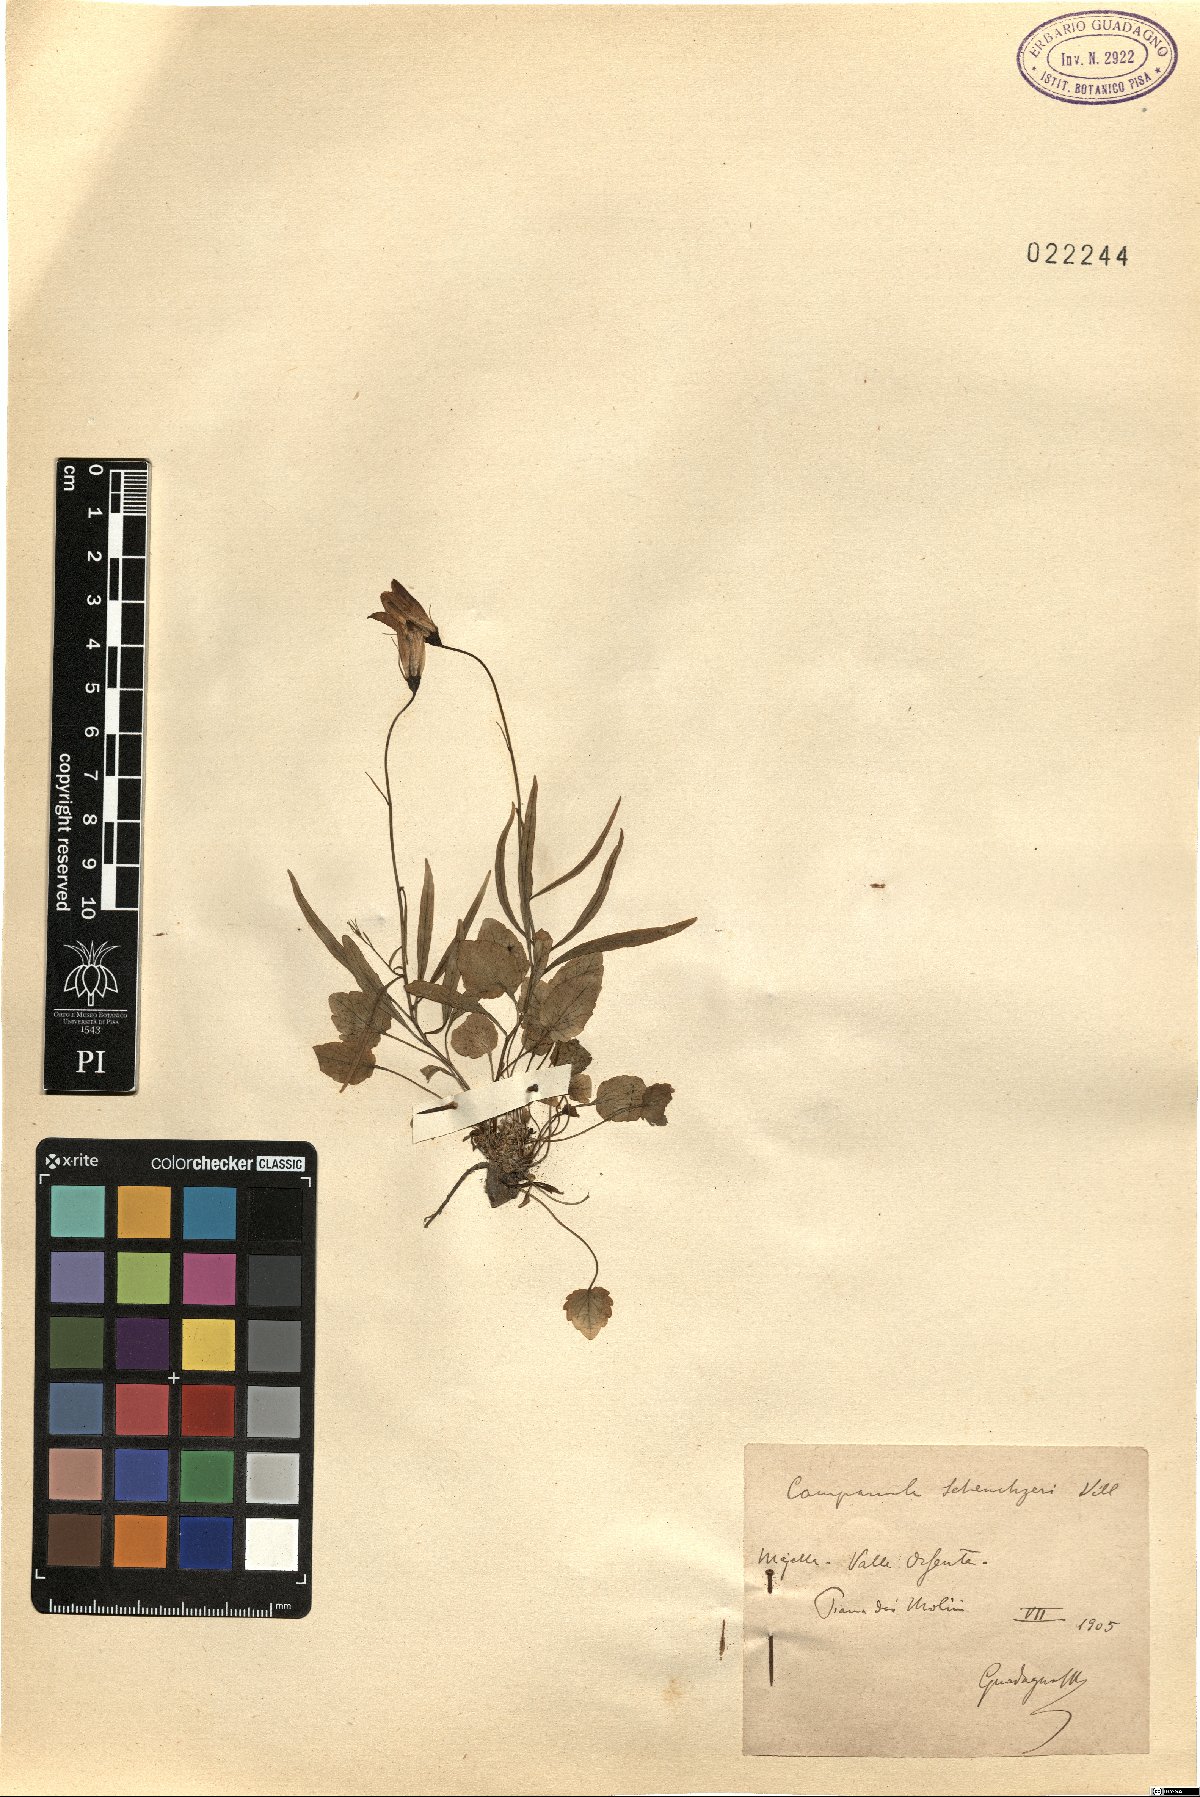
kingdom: Plantae
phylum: Tracheophyta
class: Magnoliopsida
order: Asterales
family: Campanulaceae
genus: Campanula
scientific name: Campanula scheuchzeri
